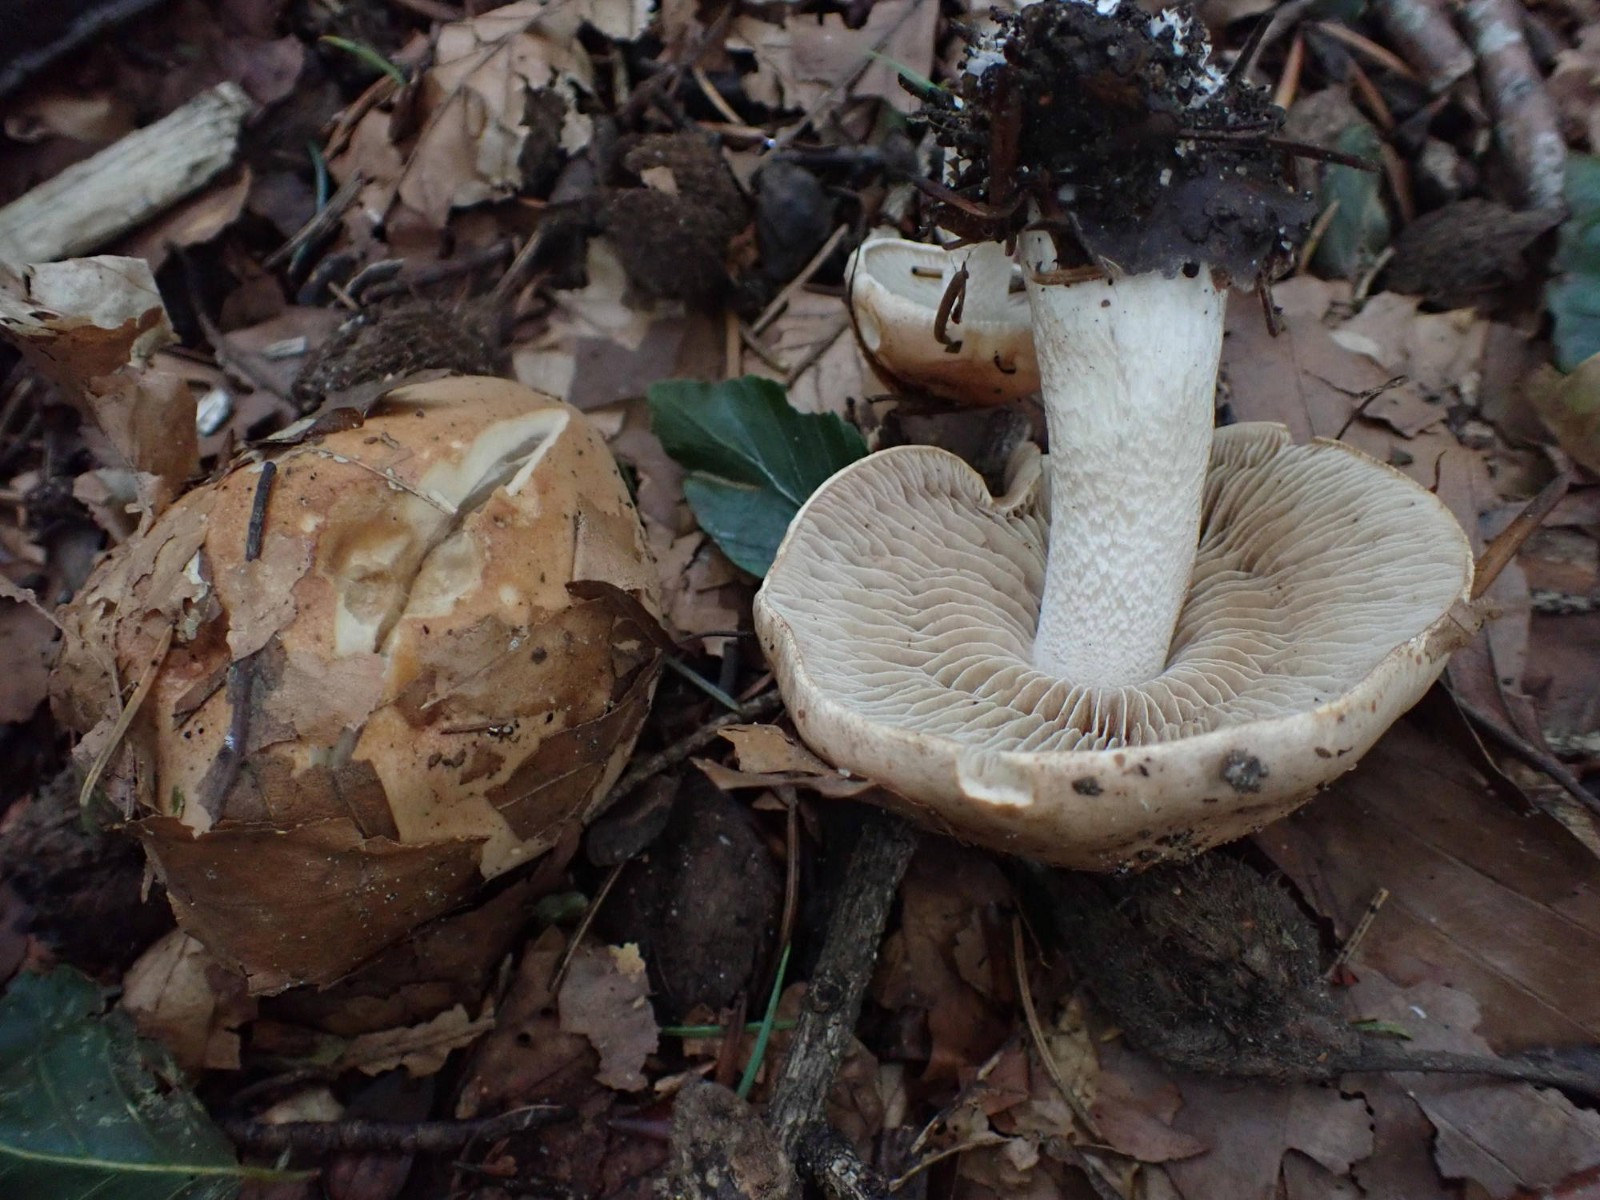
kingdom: Fungi
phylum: Basidiomycota
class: Agaricomycetes
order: Agaricales
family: Hymenogastraceae
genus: Hebeloma
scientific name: Hebeloma sinapizans
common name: ræddike-tåreblad
